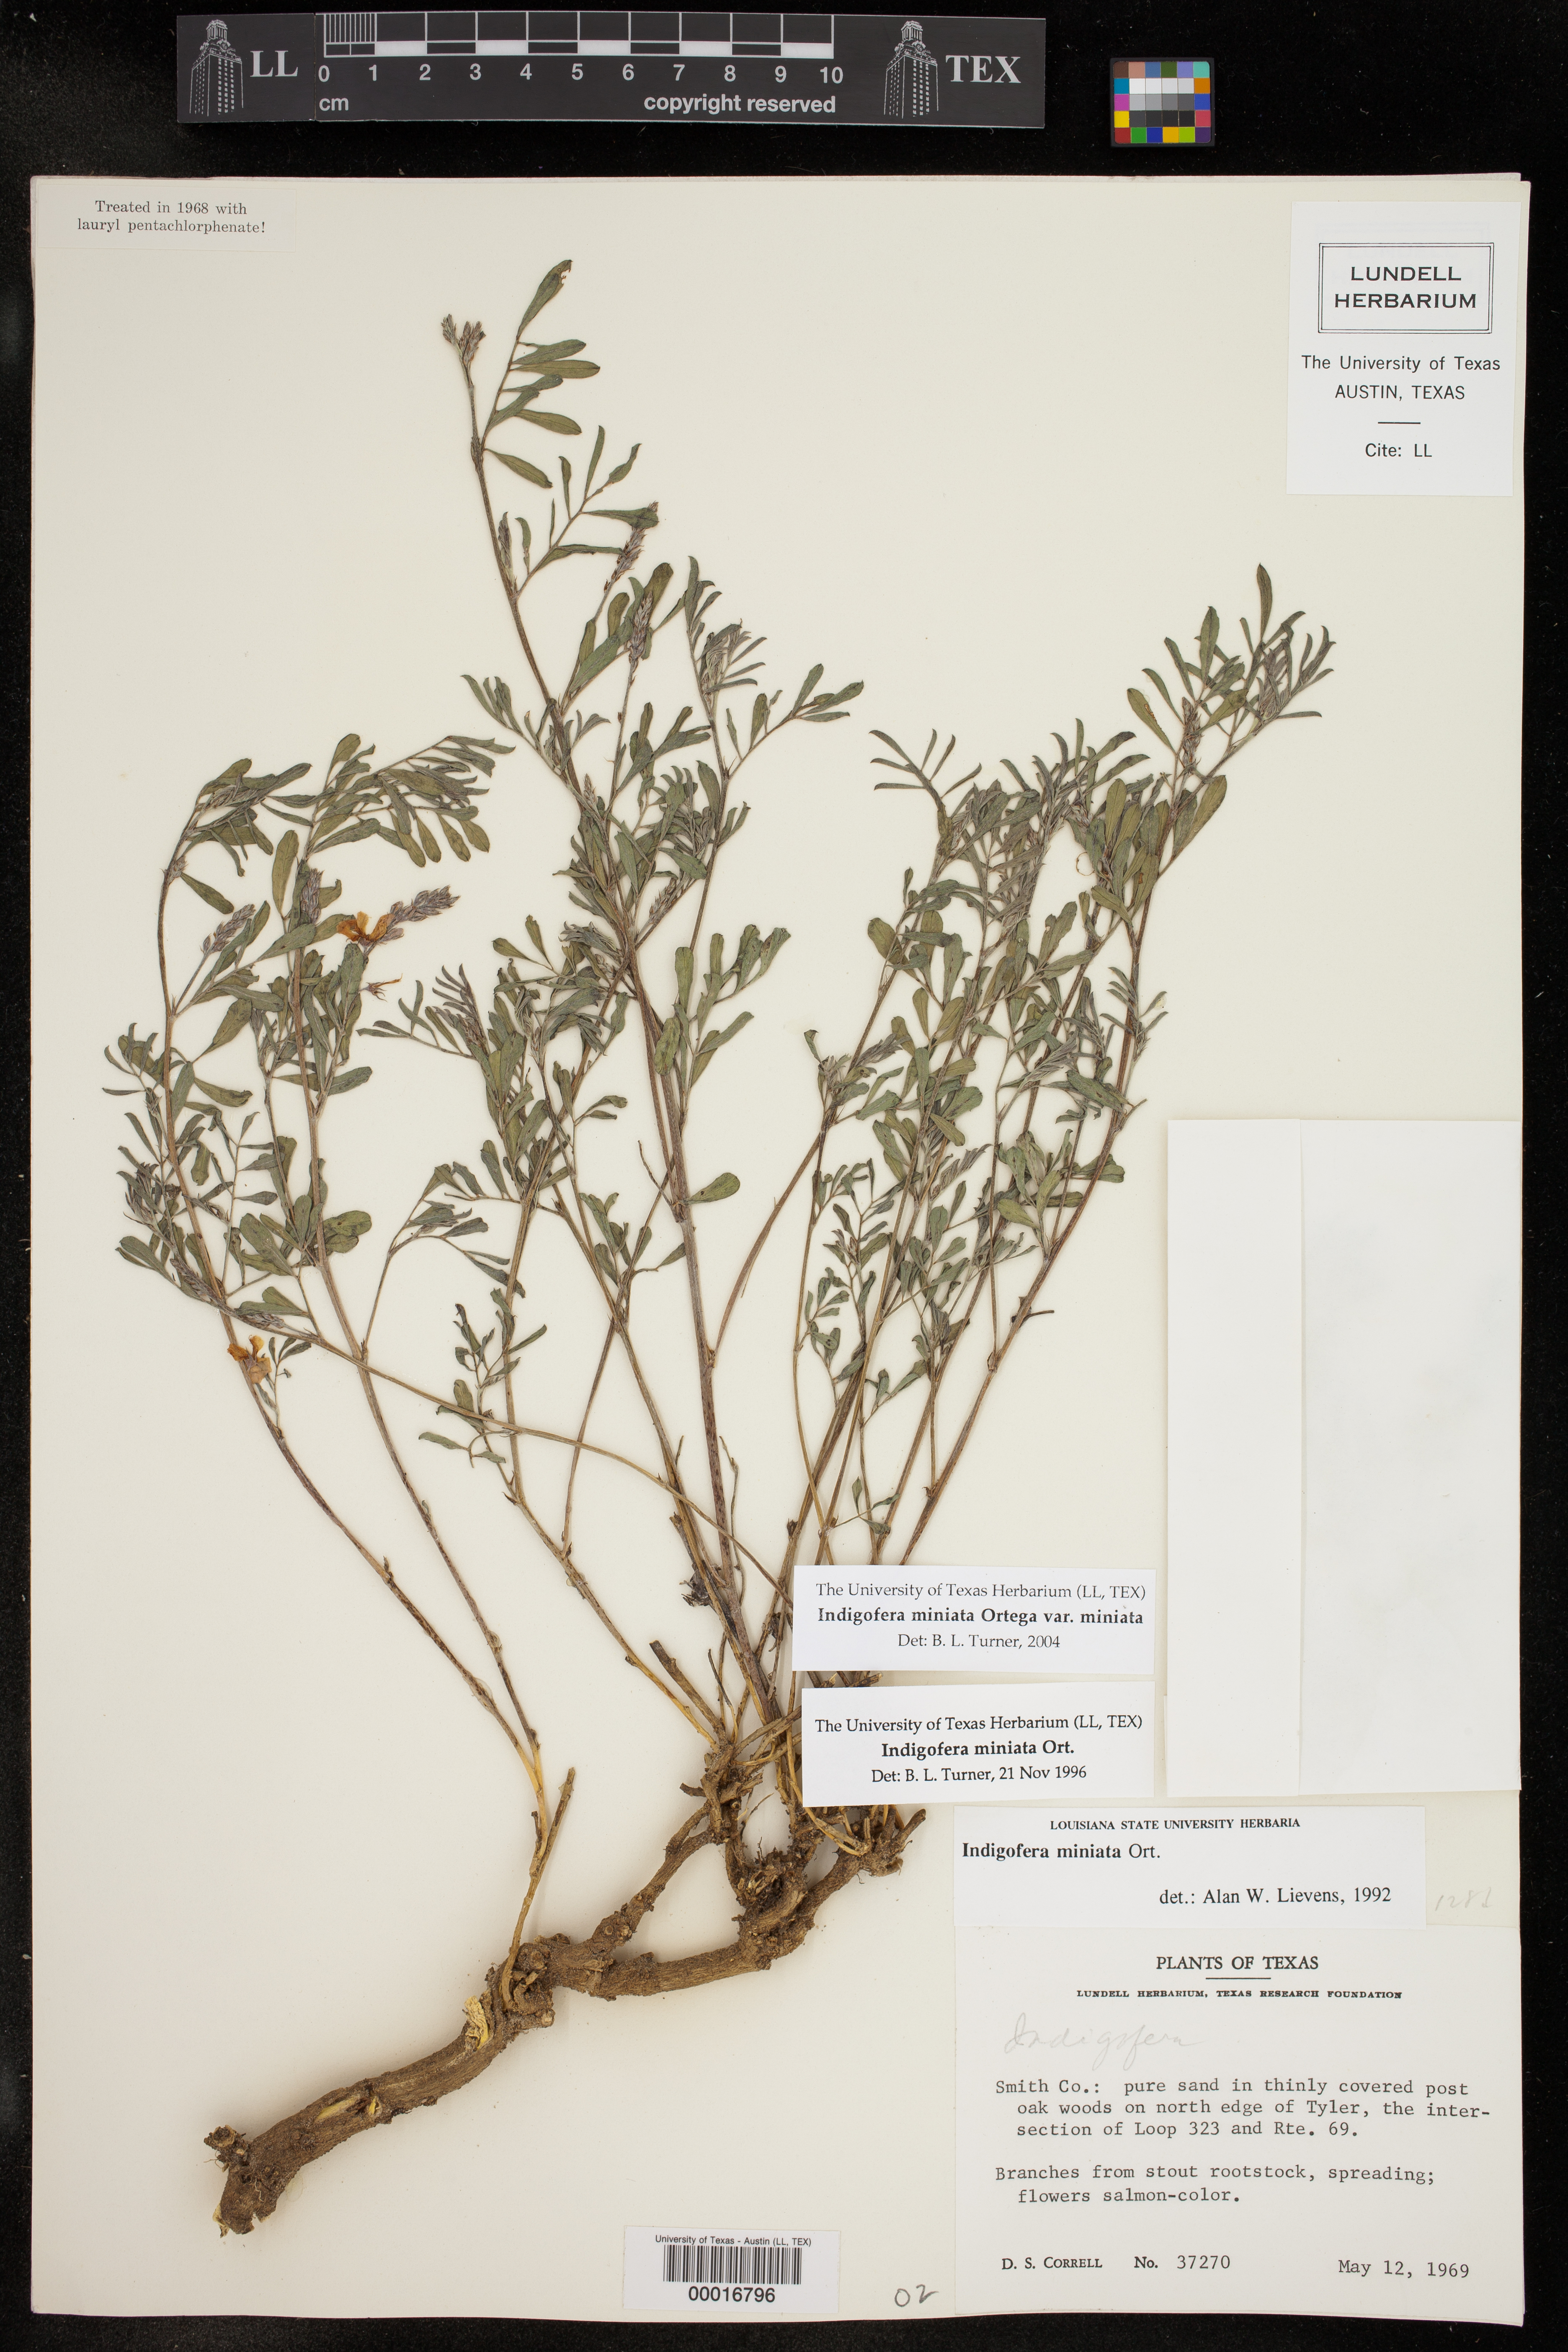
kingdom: Plantae
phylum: Tracheophyta
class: Magnoliopsida
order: Fabales
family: Fabaceae
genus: Indigofera
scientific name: Indigofera miniata
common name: Coast indigo
